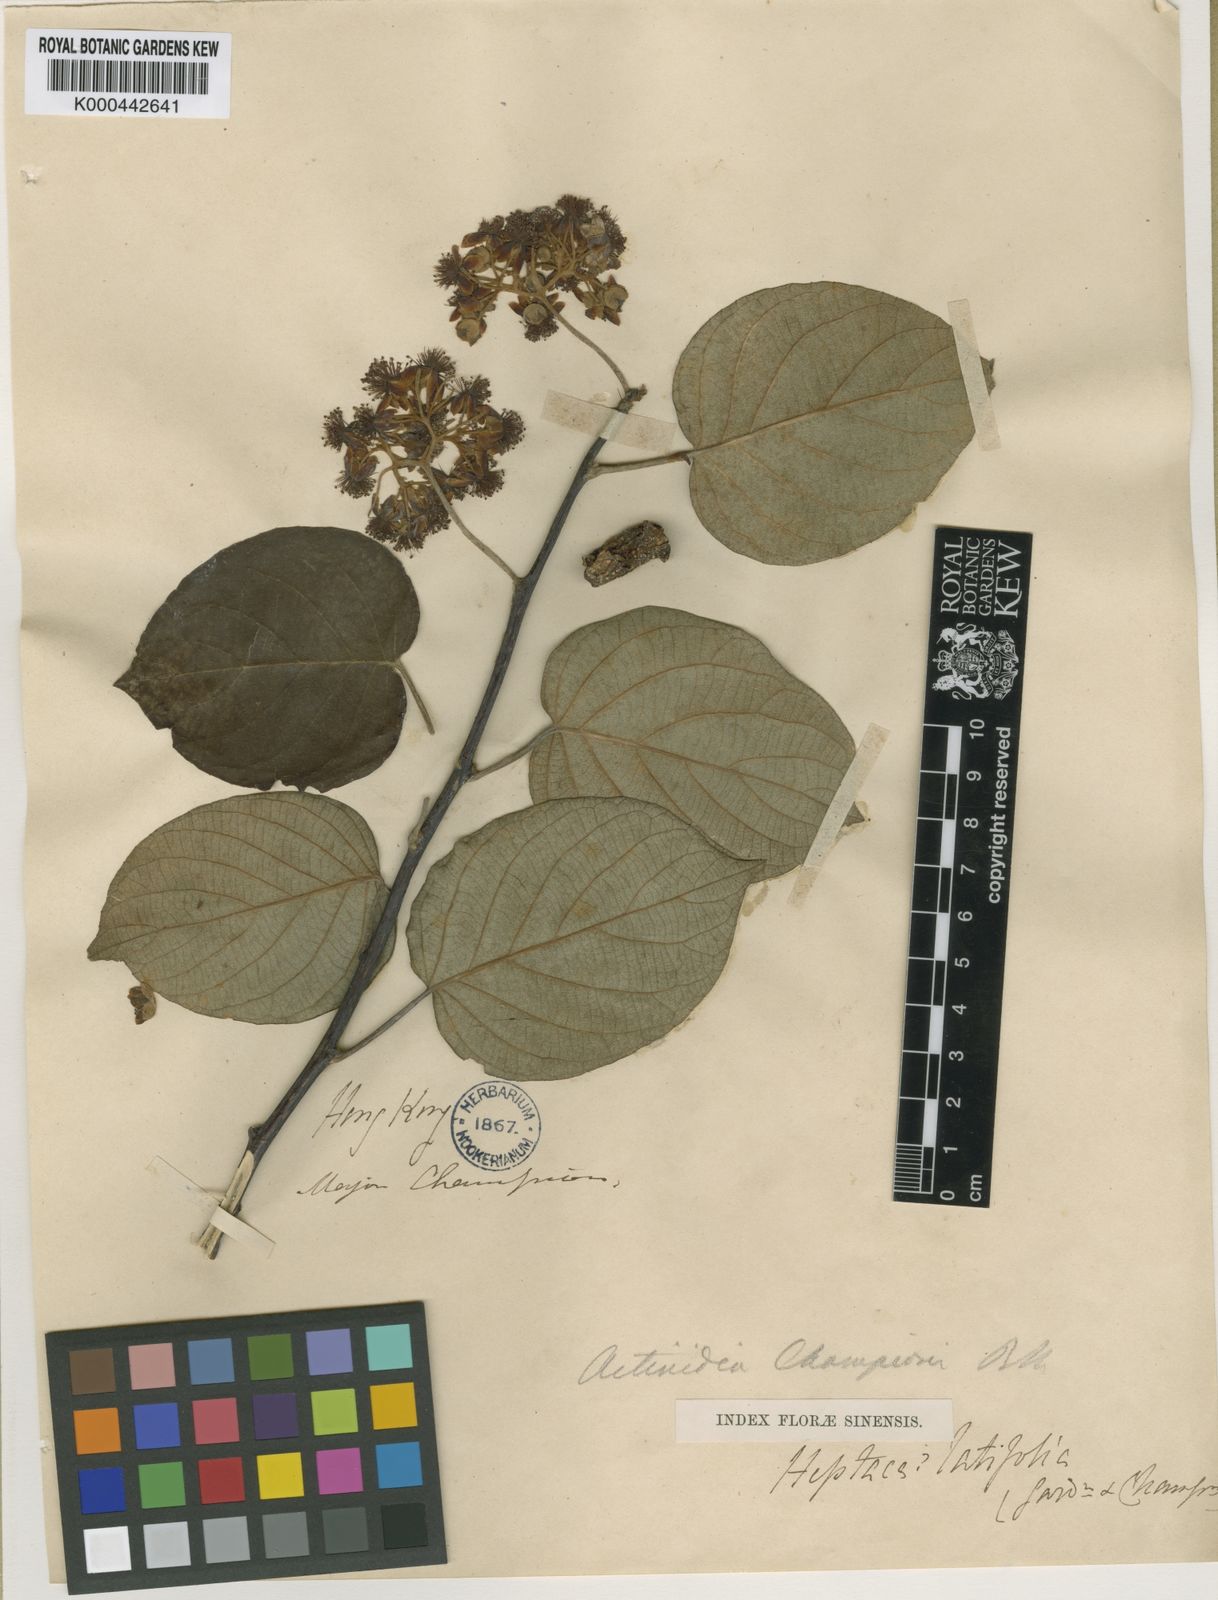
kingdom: Plantae
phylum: Tracheophyta
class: Magnoliopsida
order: Ericales
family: Actinidiaceae
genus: Actinidia
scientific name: Actinidia latifolia
